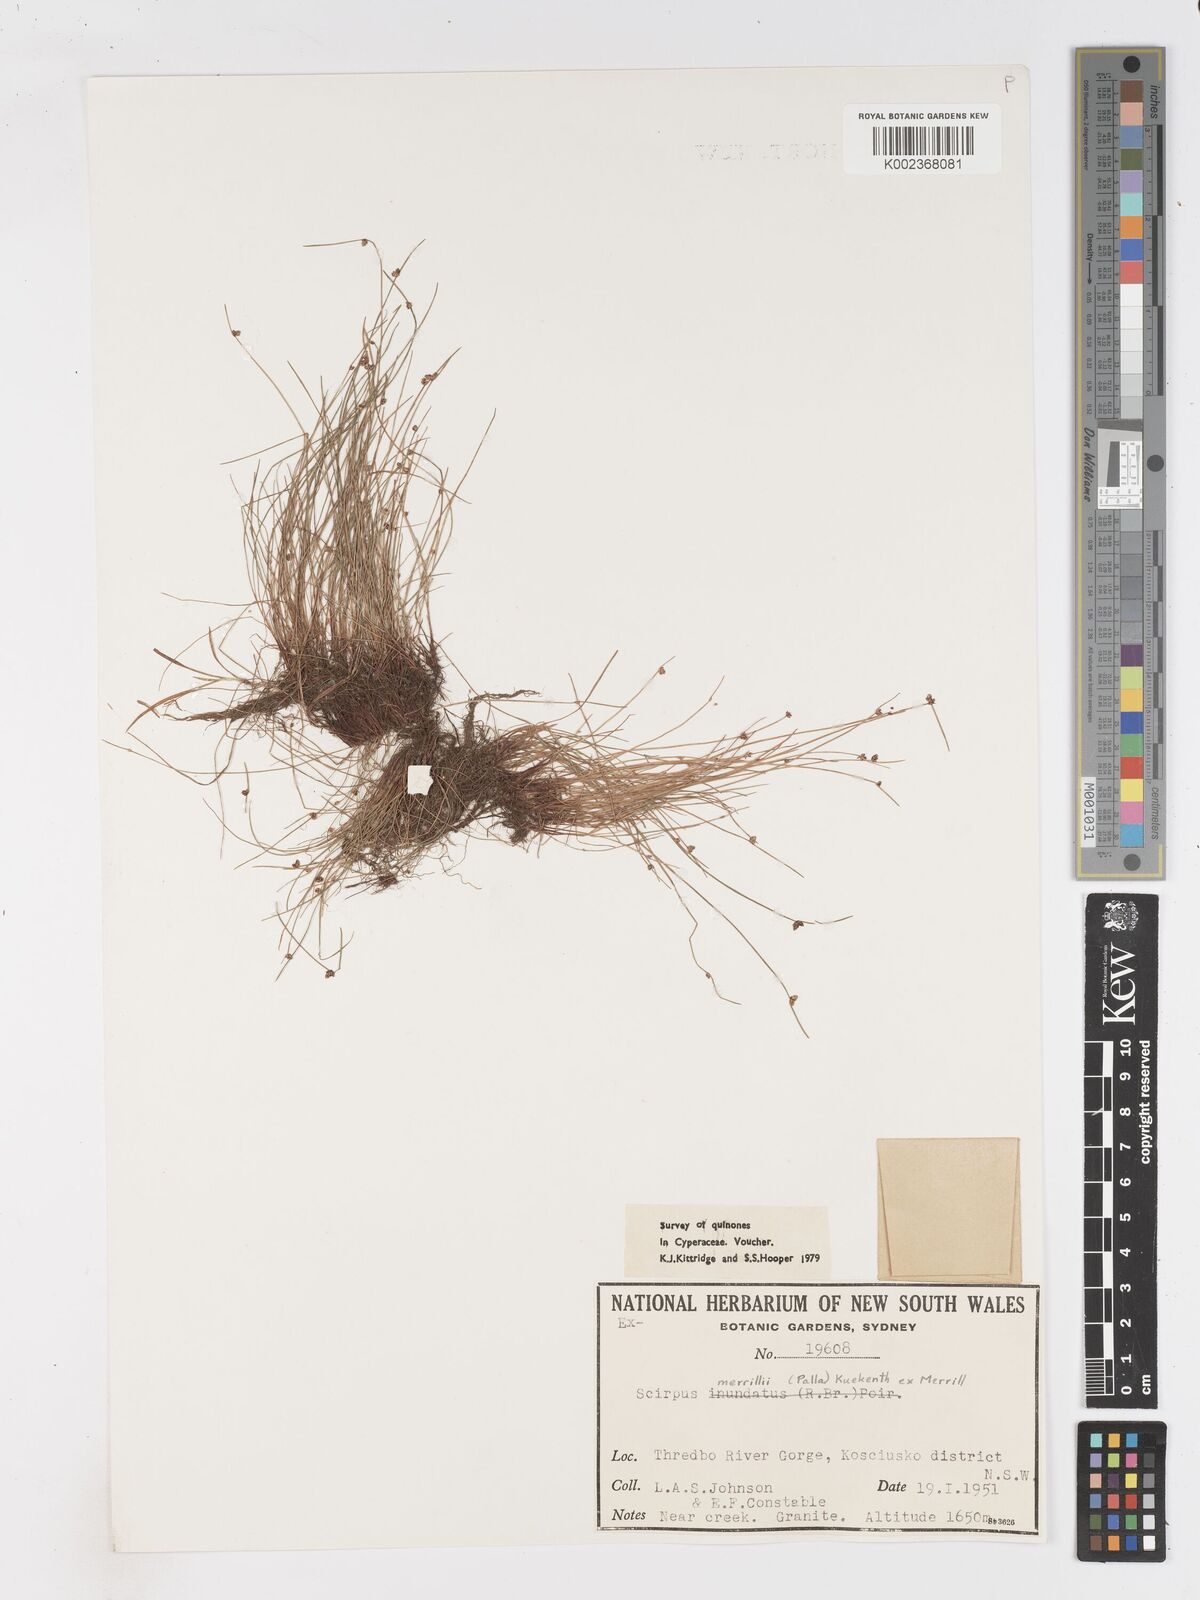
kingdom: Plantae
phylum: Tracheophyta
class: Liliopsida
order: Poales
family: Cyperaceae
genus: Isolepis
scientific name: Isolepis habra
